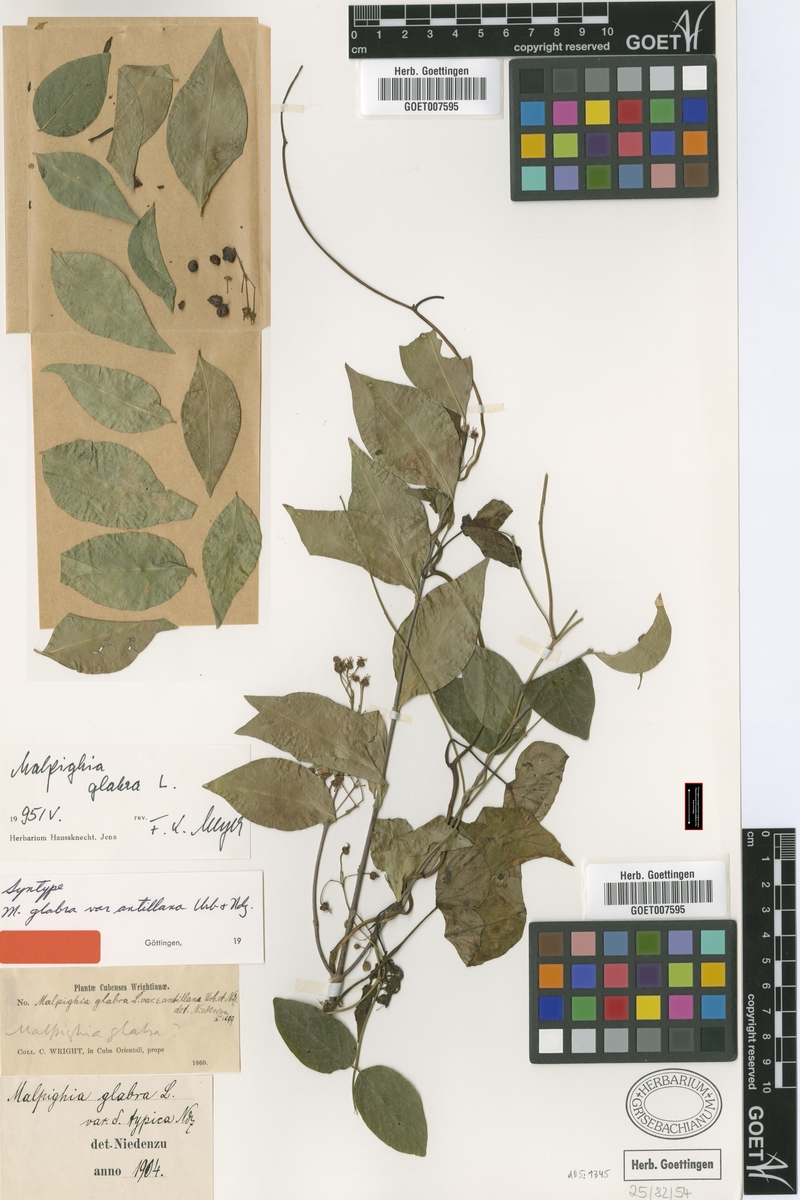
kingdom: Plantae
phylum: Tracheophyta
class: Magnoliopsida
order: Malpighiales
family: Malpighiaceae
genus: Malpighia
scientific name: Malpighia glabra
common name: Barbados cherry
